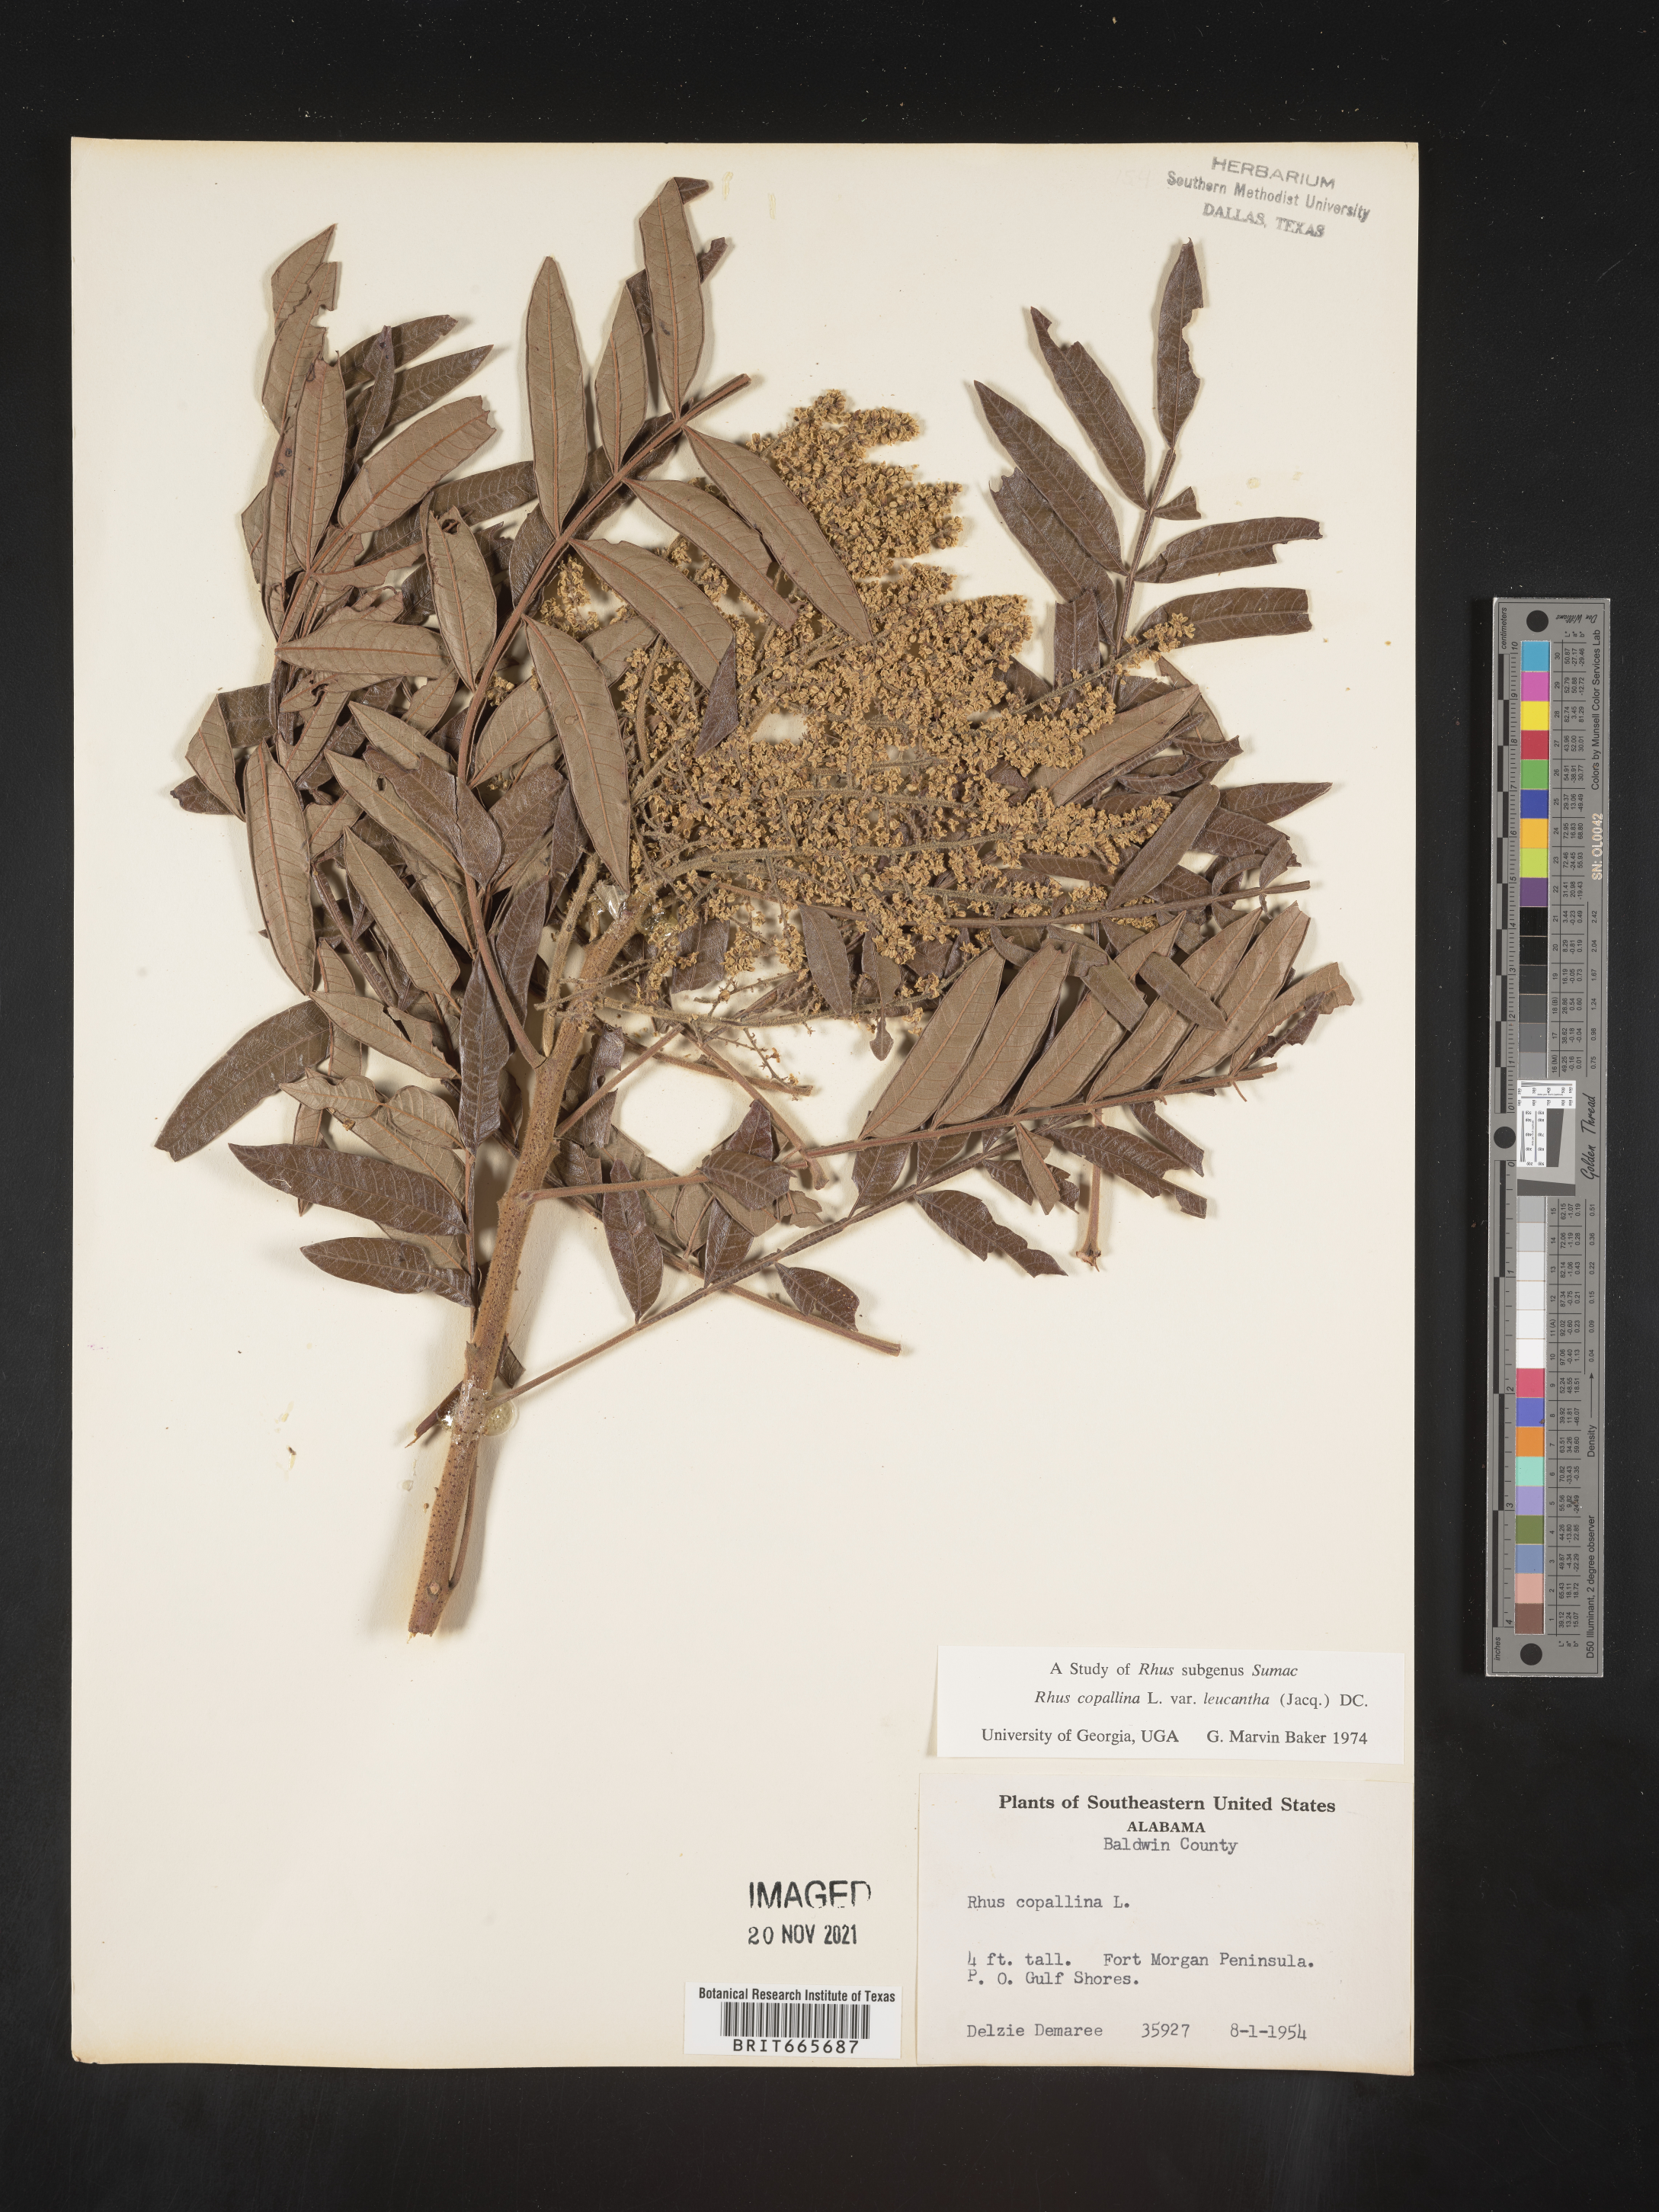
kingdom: Plantae
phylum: Tracheophyta
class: Magnoliopsida
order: Sapindales
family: Anacardiaceae
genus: Rhus
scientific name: Rhus copallina
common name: Shining sumac
